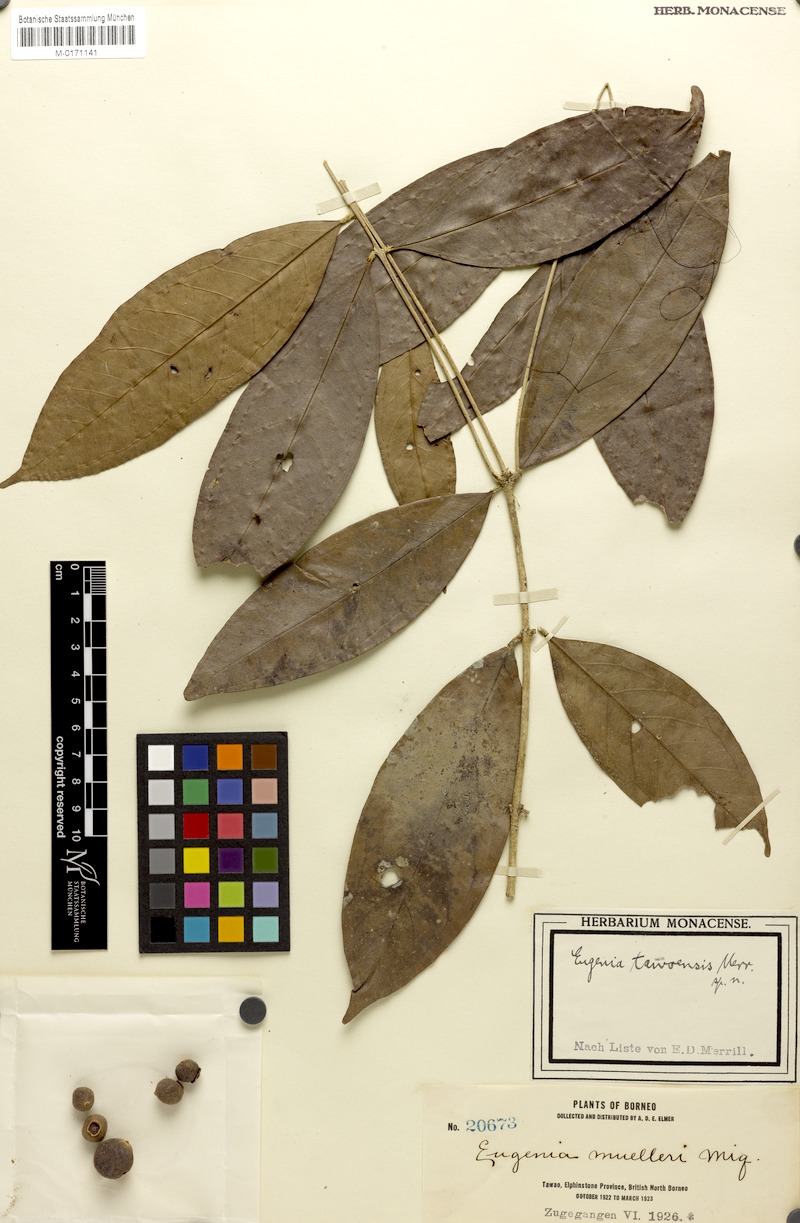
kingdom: Plantae
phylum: Tracheophyta
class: Magnoliopsida
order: Myrtales
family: Myrtaceae
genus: Syzygium
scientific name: Syzygium peregrinum
